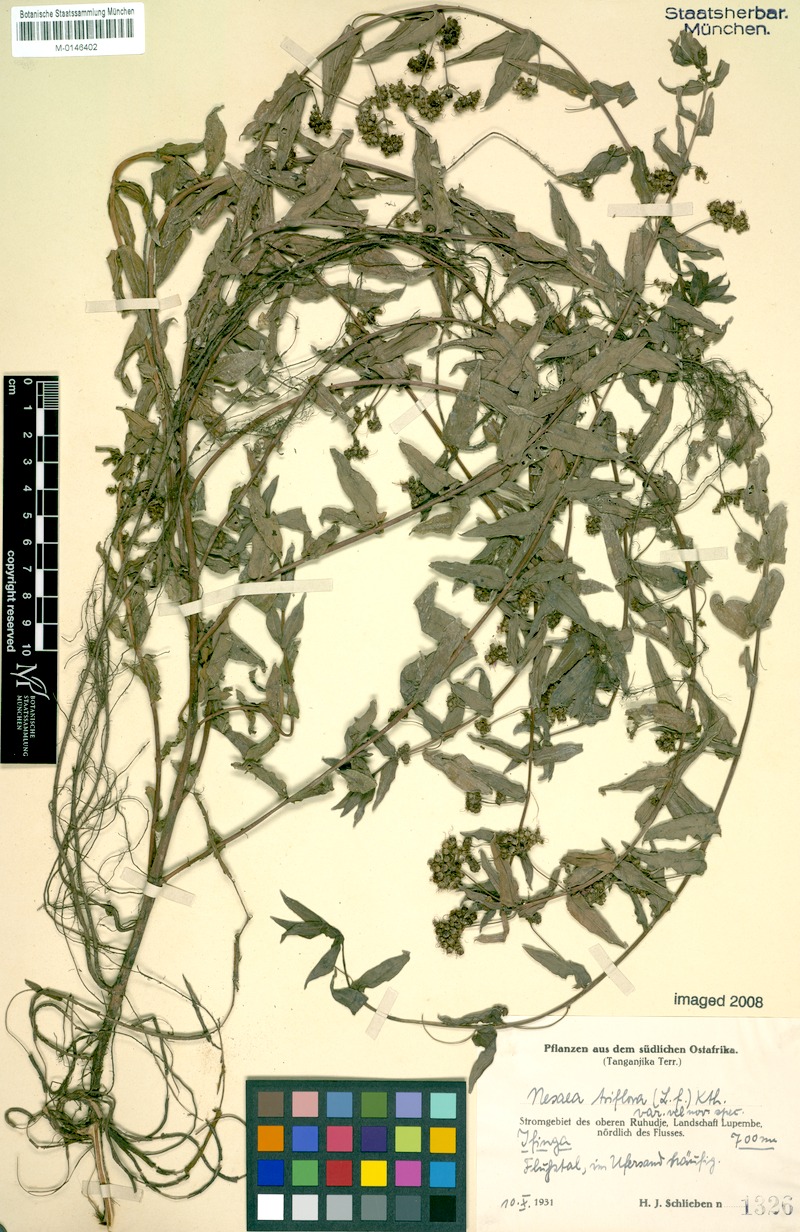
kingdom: Plantae
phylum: Tracheophyta
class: Magnoliopsida
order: Myrtales
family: Lythraceae
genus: Ammannia
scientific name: Ammannia capitellata
